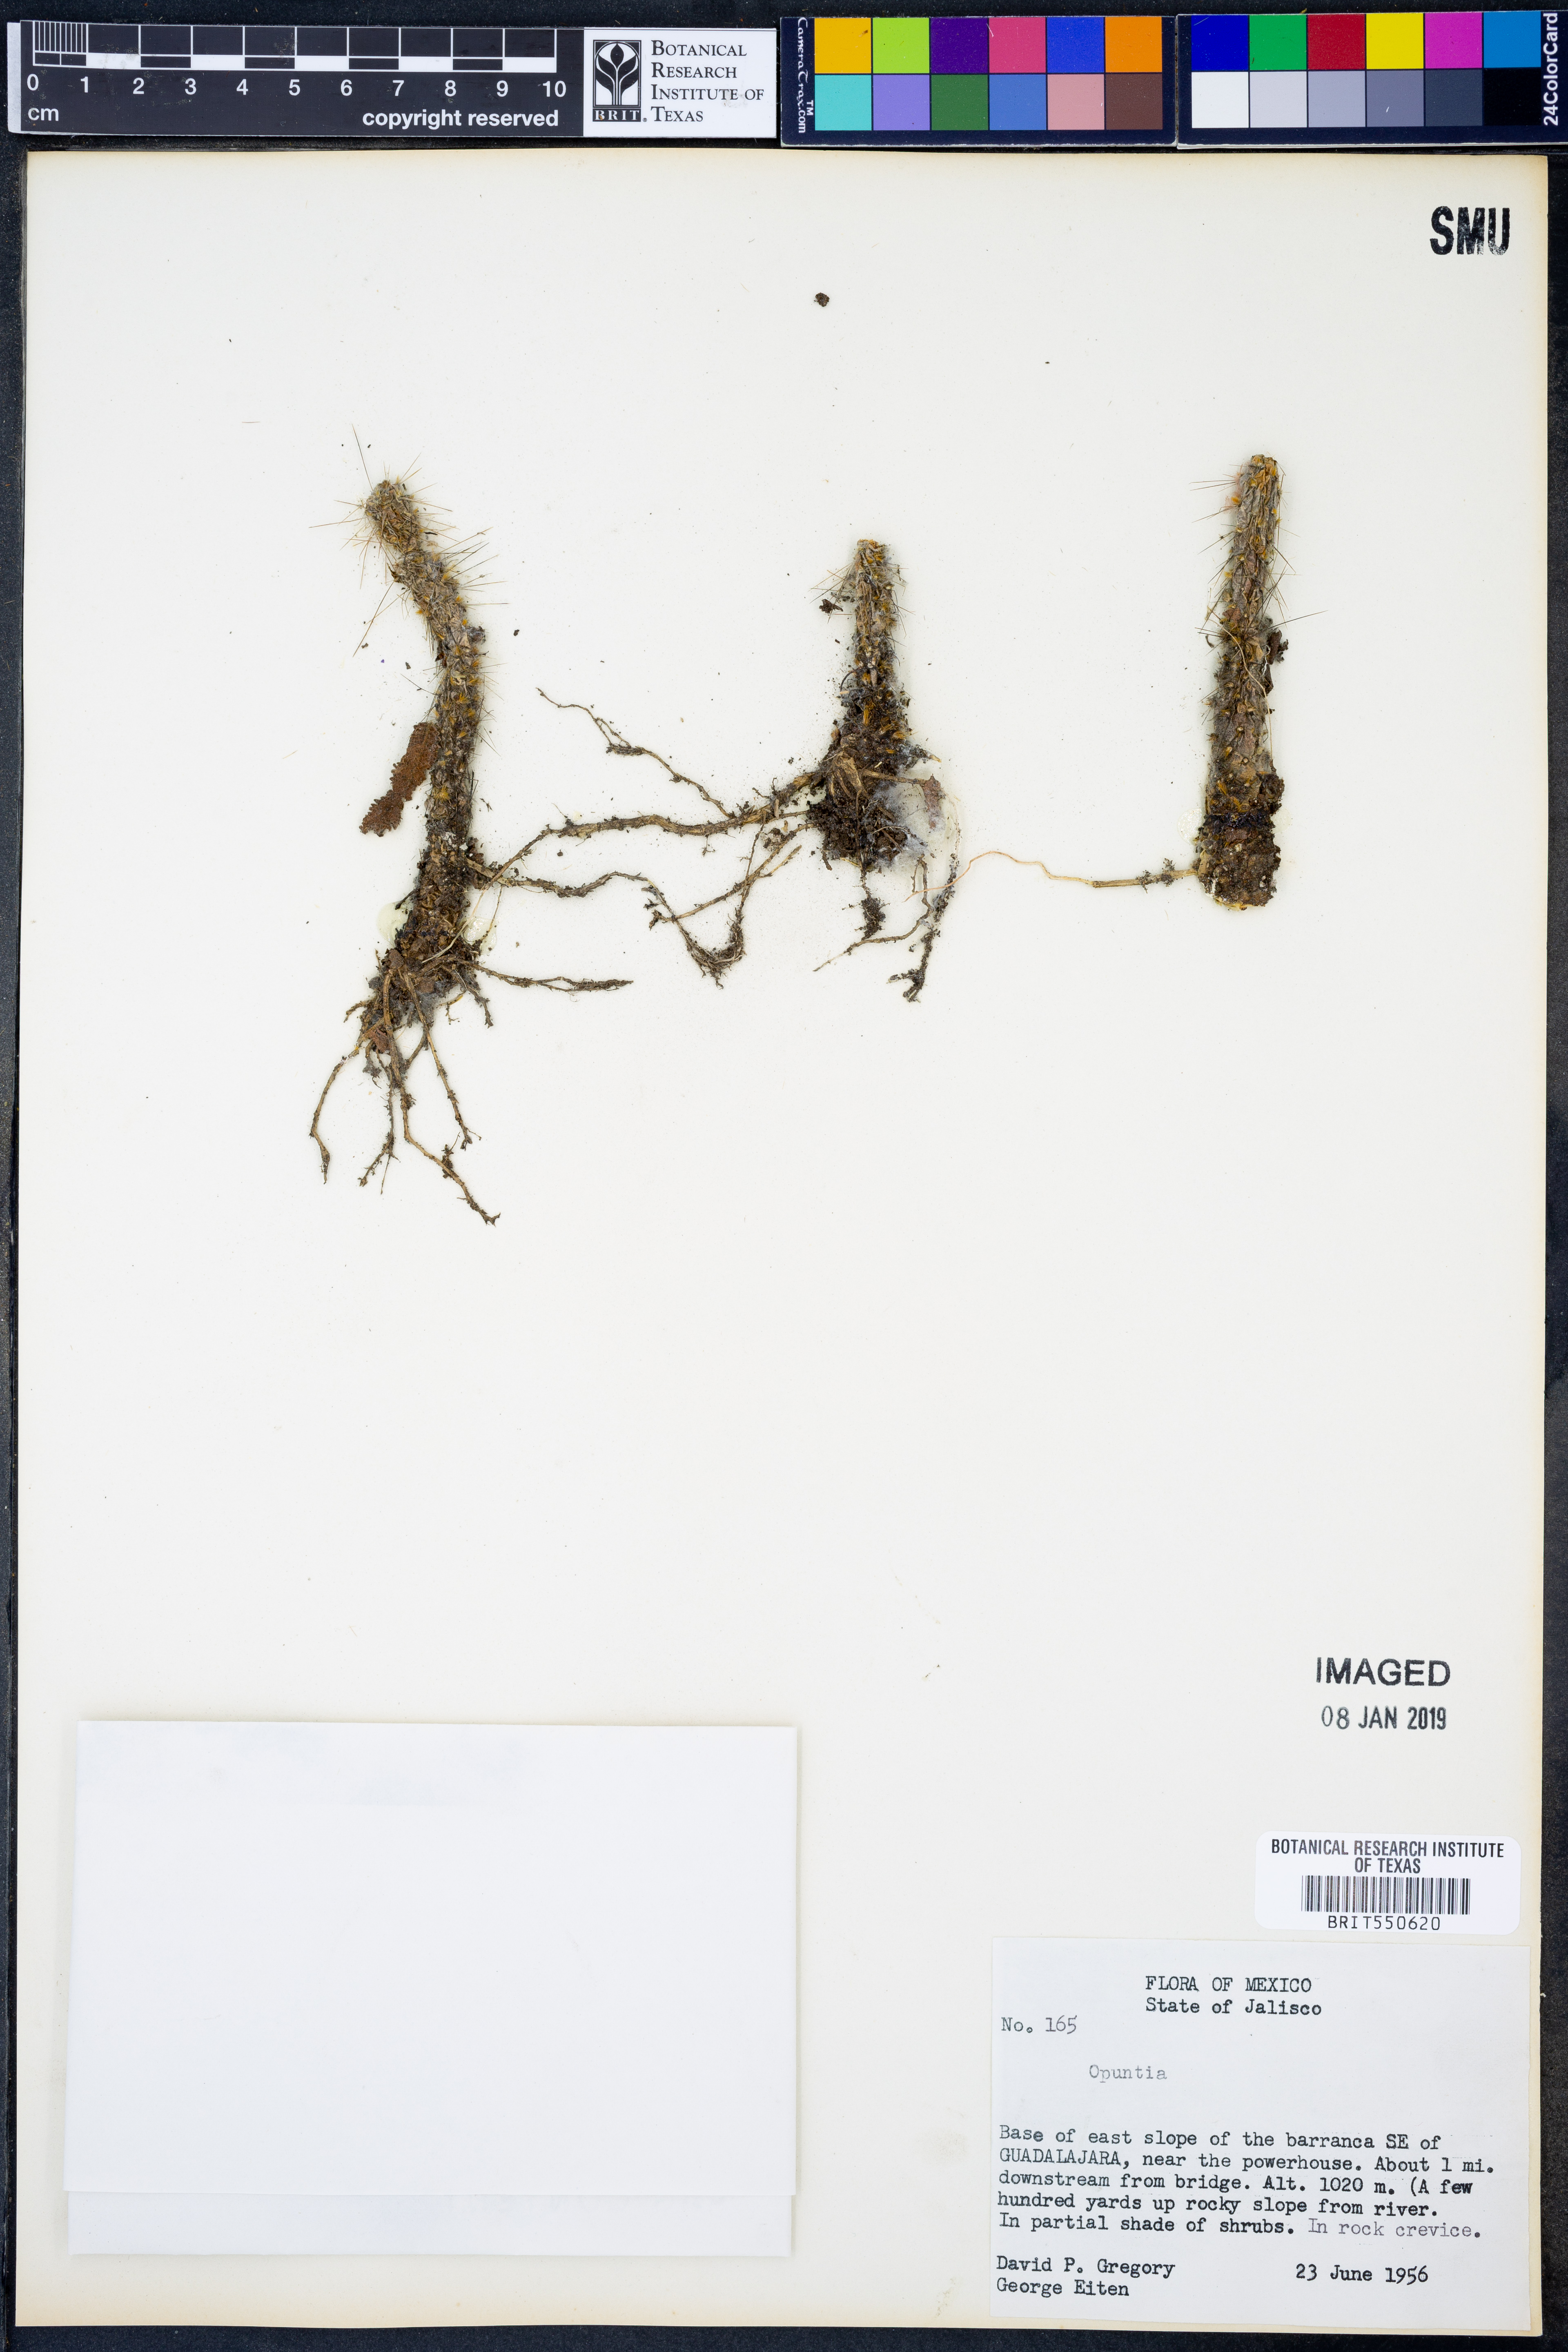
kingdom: Plantae
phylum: Tracheophyta
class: Magnoliopsida
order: Caryophyllales
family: Cactaceae
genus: Opuntia
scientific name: Opuntia
